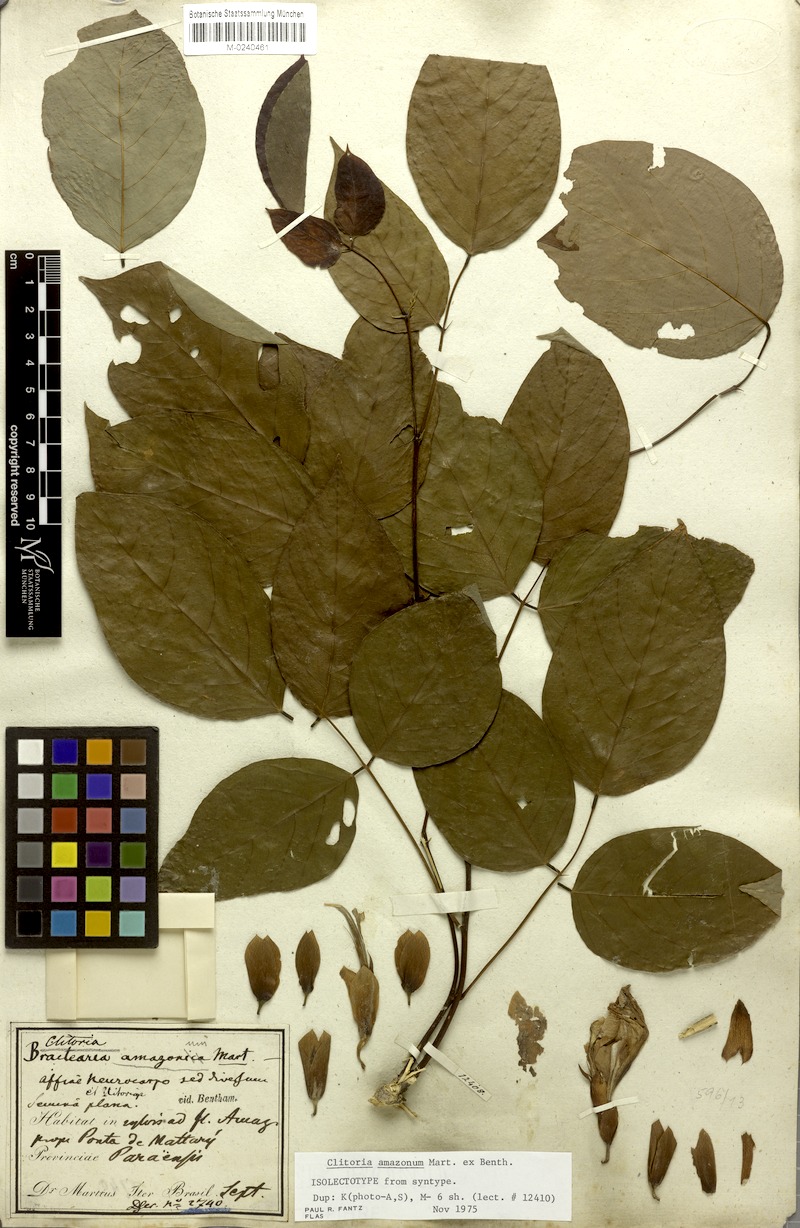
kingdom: Plantae
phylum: Tracheophyta
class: Magnoliopsida
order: Fabales
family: Fabaceae
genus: Clitoria
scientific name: Clitoria amazonum
